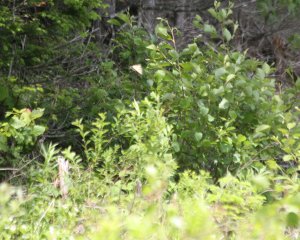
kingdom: Animalia
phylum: Arthropoda
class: Insecta
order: Lepidoptera
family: Papilionidae
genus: Pterourus
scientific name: Pterourus canadensis
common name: Canadian Tiger Swallowtail
